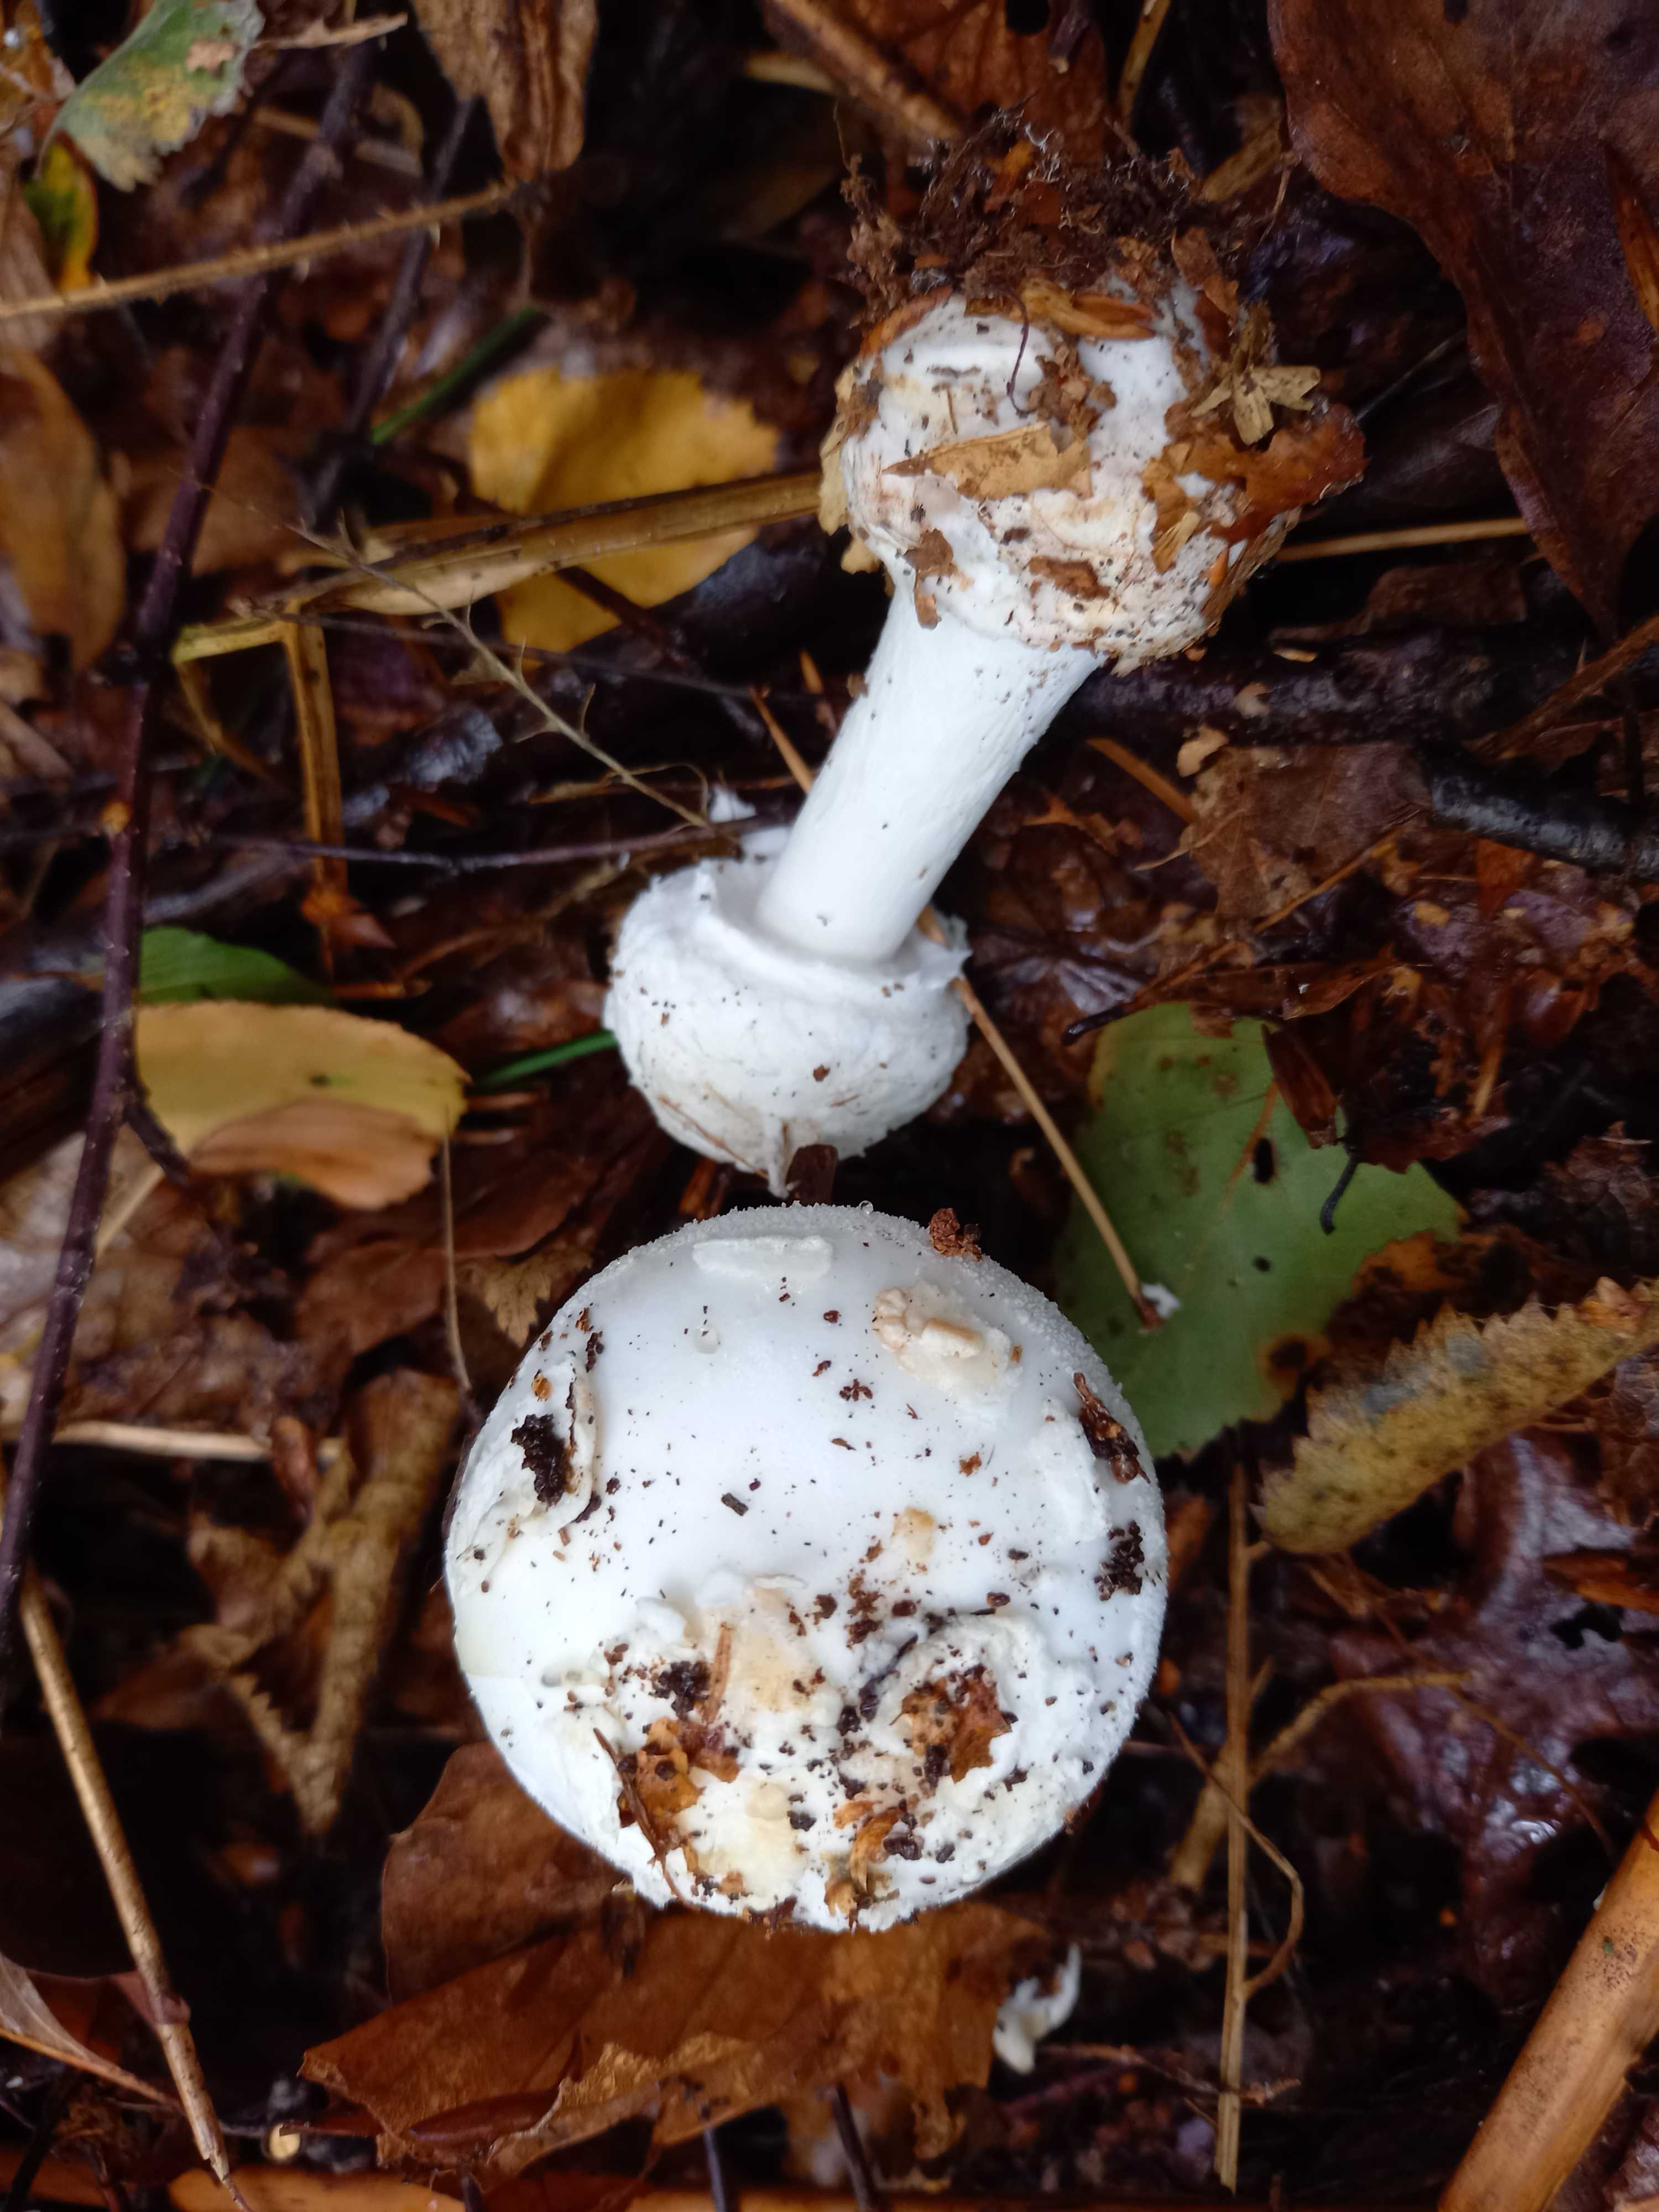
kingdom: Fungi
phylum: Basidiomycota
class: Agaricomycetes
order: Agaricales
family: Amanitaceae
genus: Amanita
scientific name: Amanita citrina
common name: kugleknoldet fluesvamp
